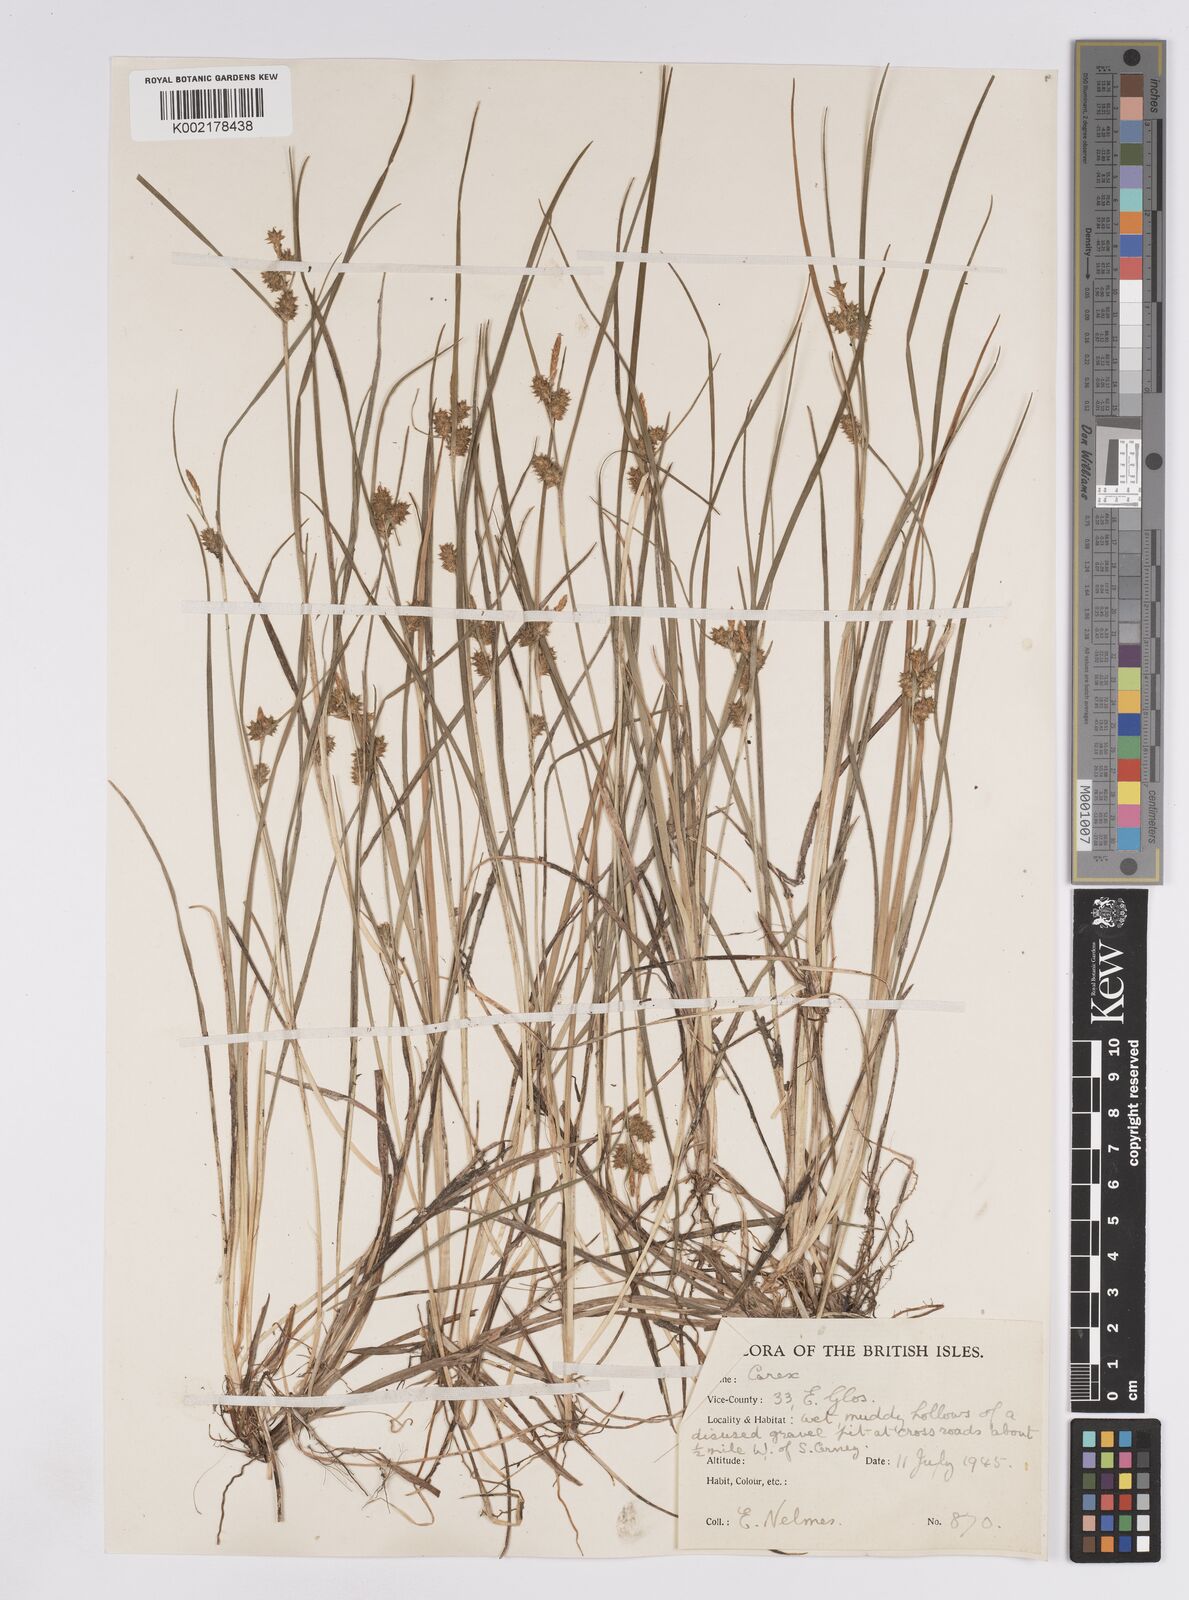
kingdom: Plantae
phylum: Tracheophyta
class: Liliopsida
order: Poales
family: Cyperaceae
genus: Carex
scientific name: Carex lepidocarpa
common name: Long-stalked yellow-sedge
